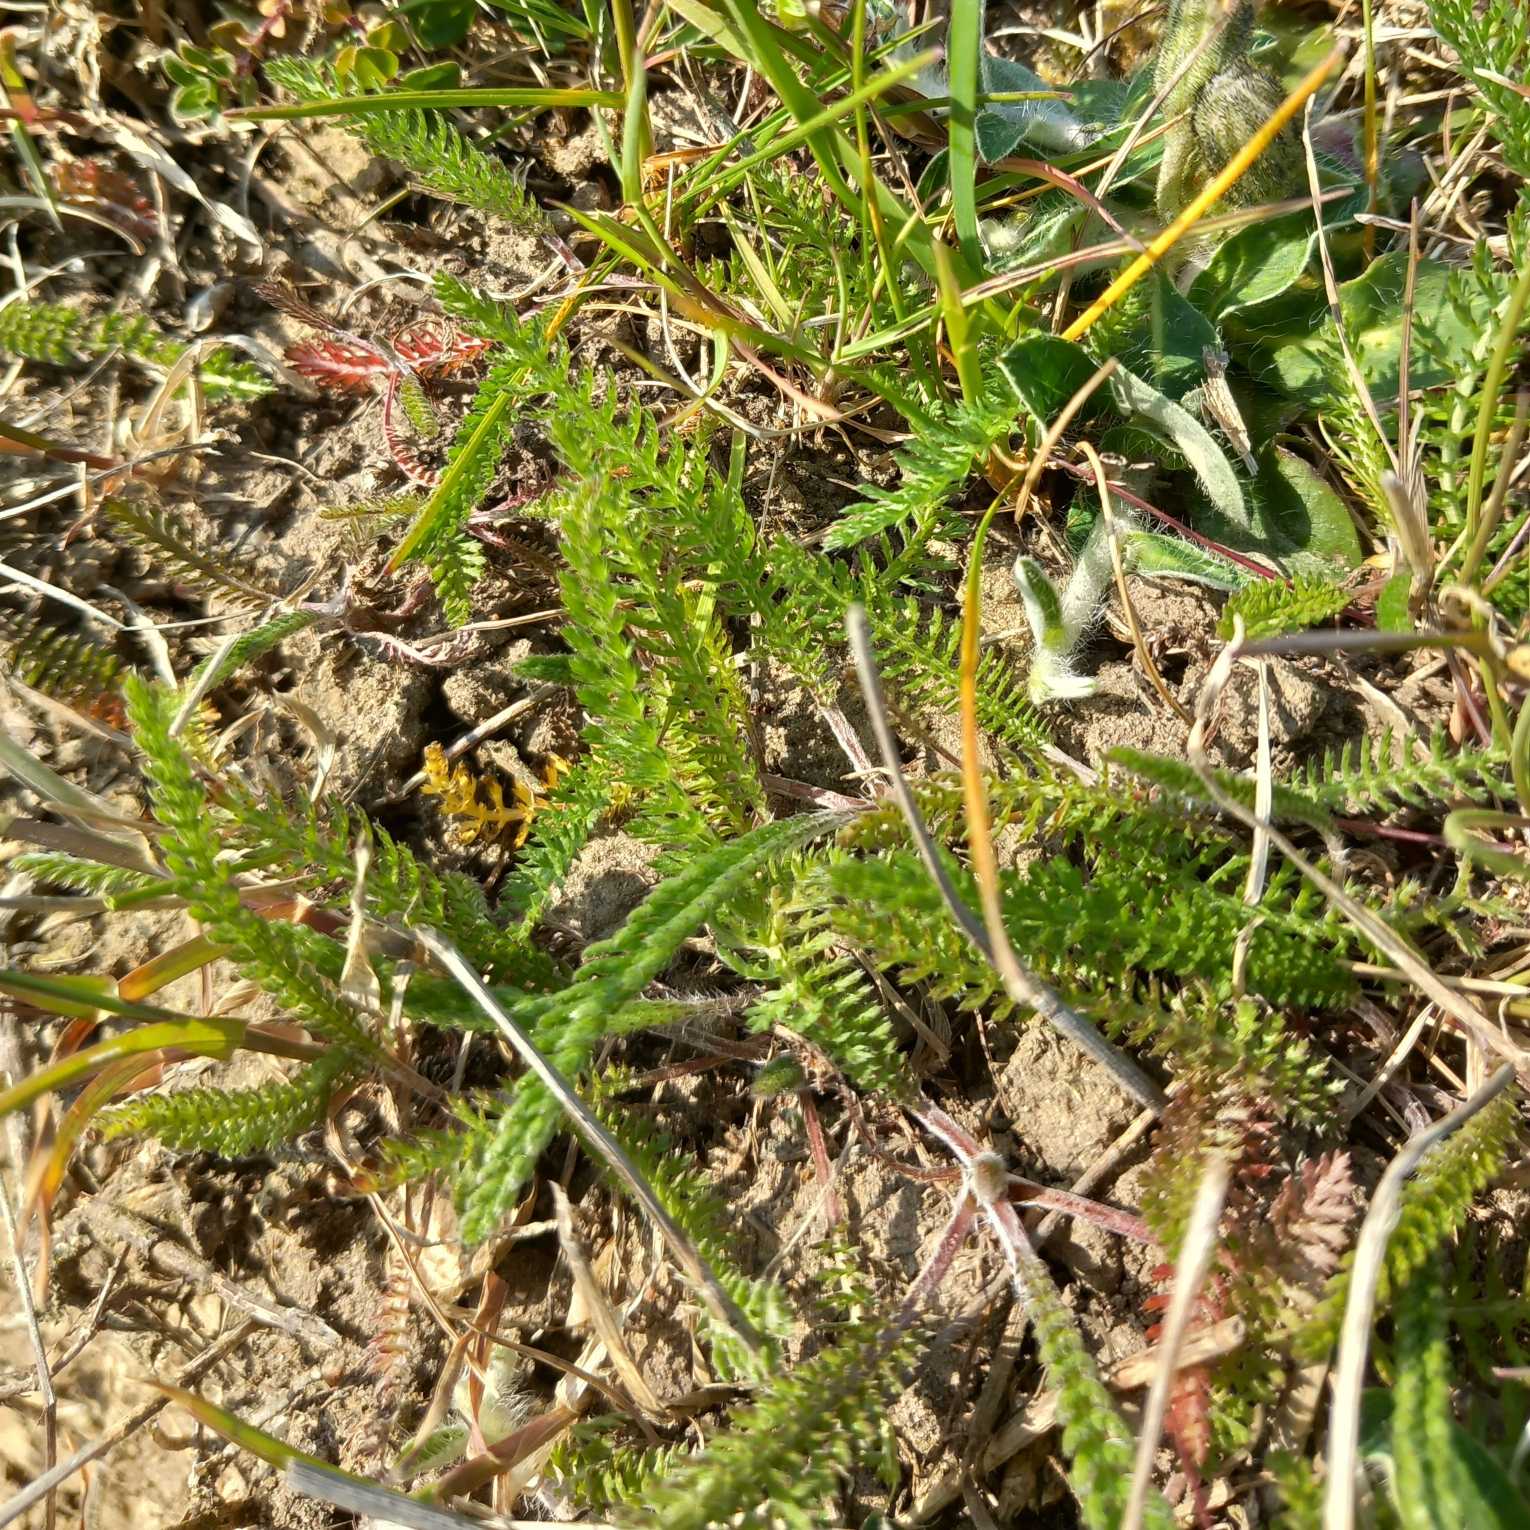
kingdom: Plantae
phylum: Tracheophyta
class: Magnoliopsida
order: Asterales
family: Asteraceae
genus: Achillea
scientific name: Achillea millefolium
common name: Almindelig røllike
